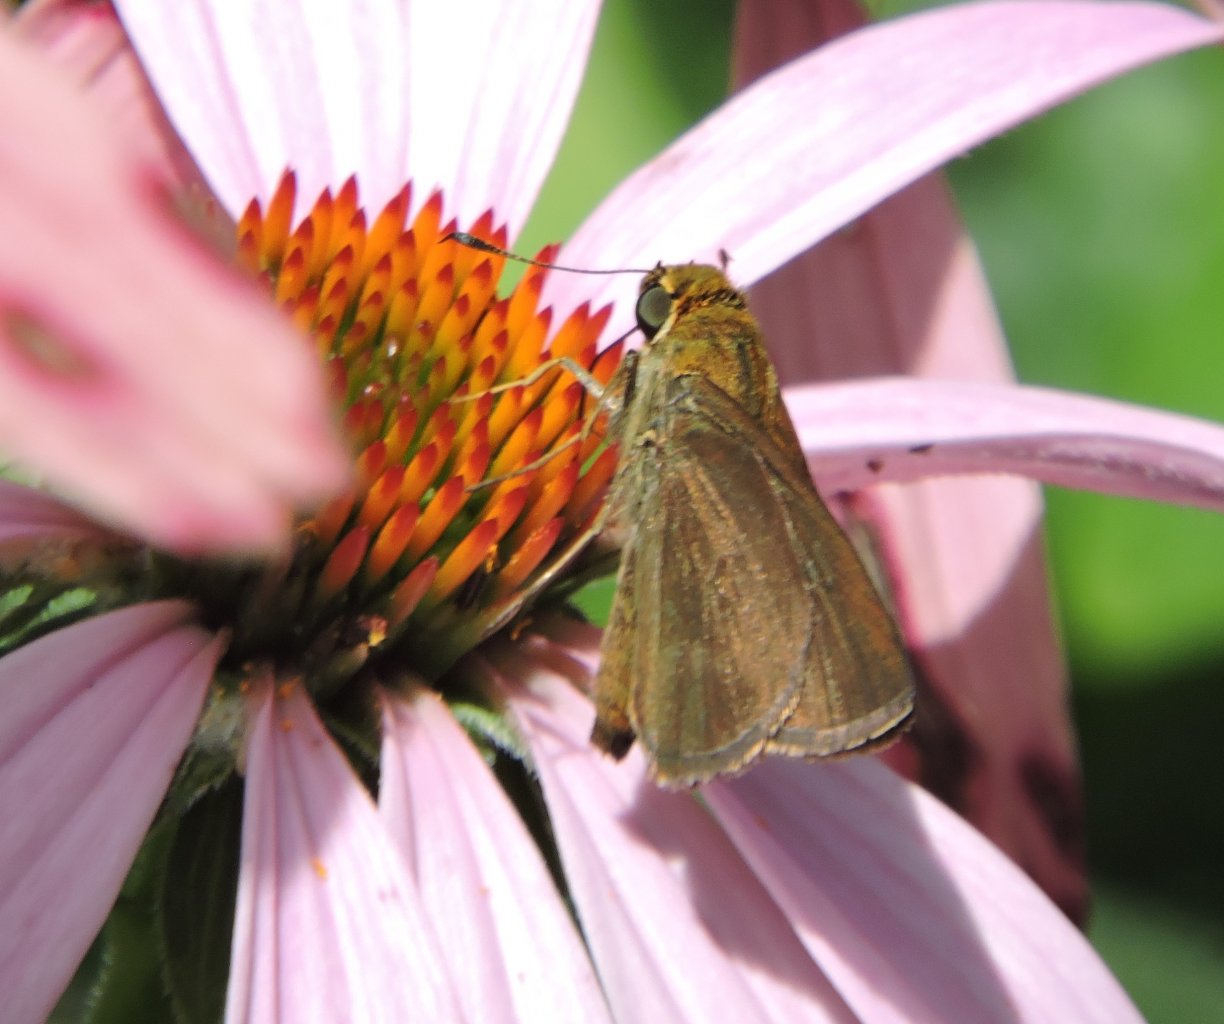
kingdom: Animalia
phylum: Arthropoda
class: Insecta
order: Lepidoptera
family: Hesperiidae
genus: Euphyes
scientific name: Euphyes vestris
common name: Dun Skipper
